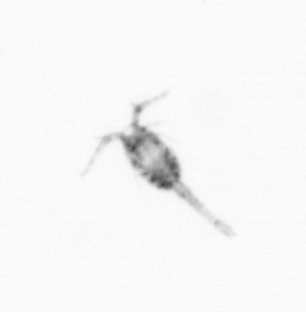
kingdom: Animalia
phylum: Arthropoda
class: Copepoda
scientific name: Copepoda
